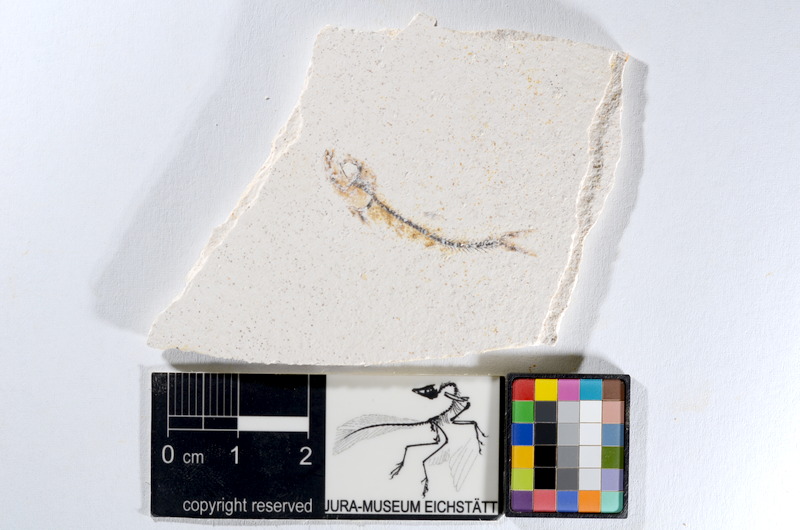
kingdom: Animalia
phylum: Chordata
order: Salmoniformes
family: Orthogonikleithridae
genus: Orthogonikleithrus
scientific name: Orthogonikleithrus hoelli
